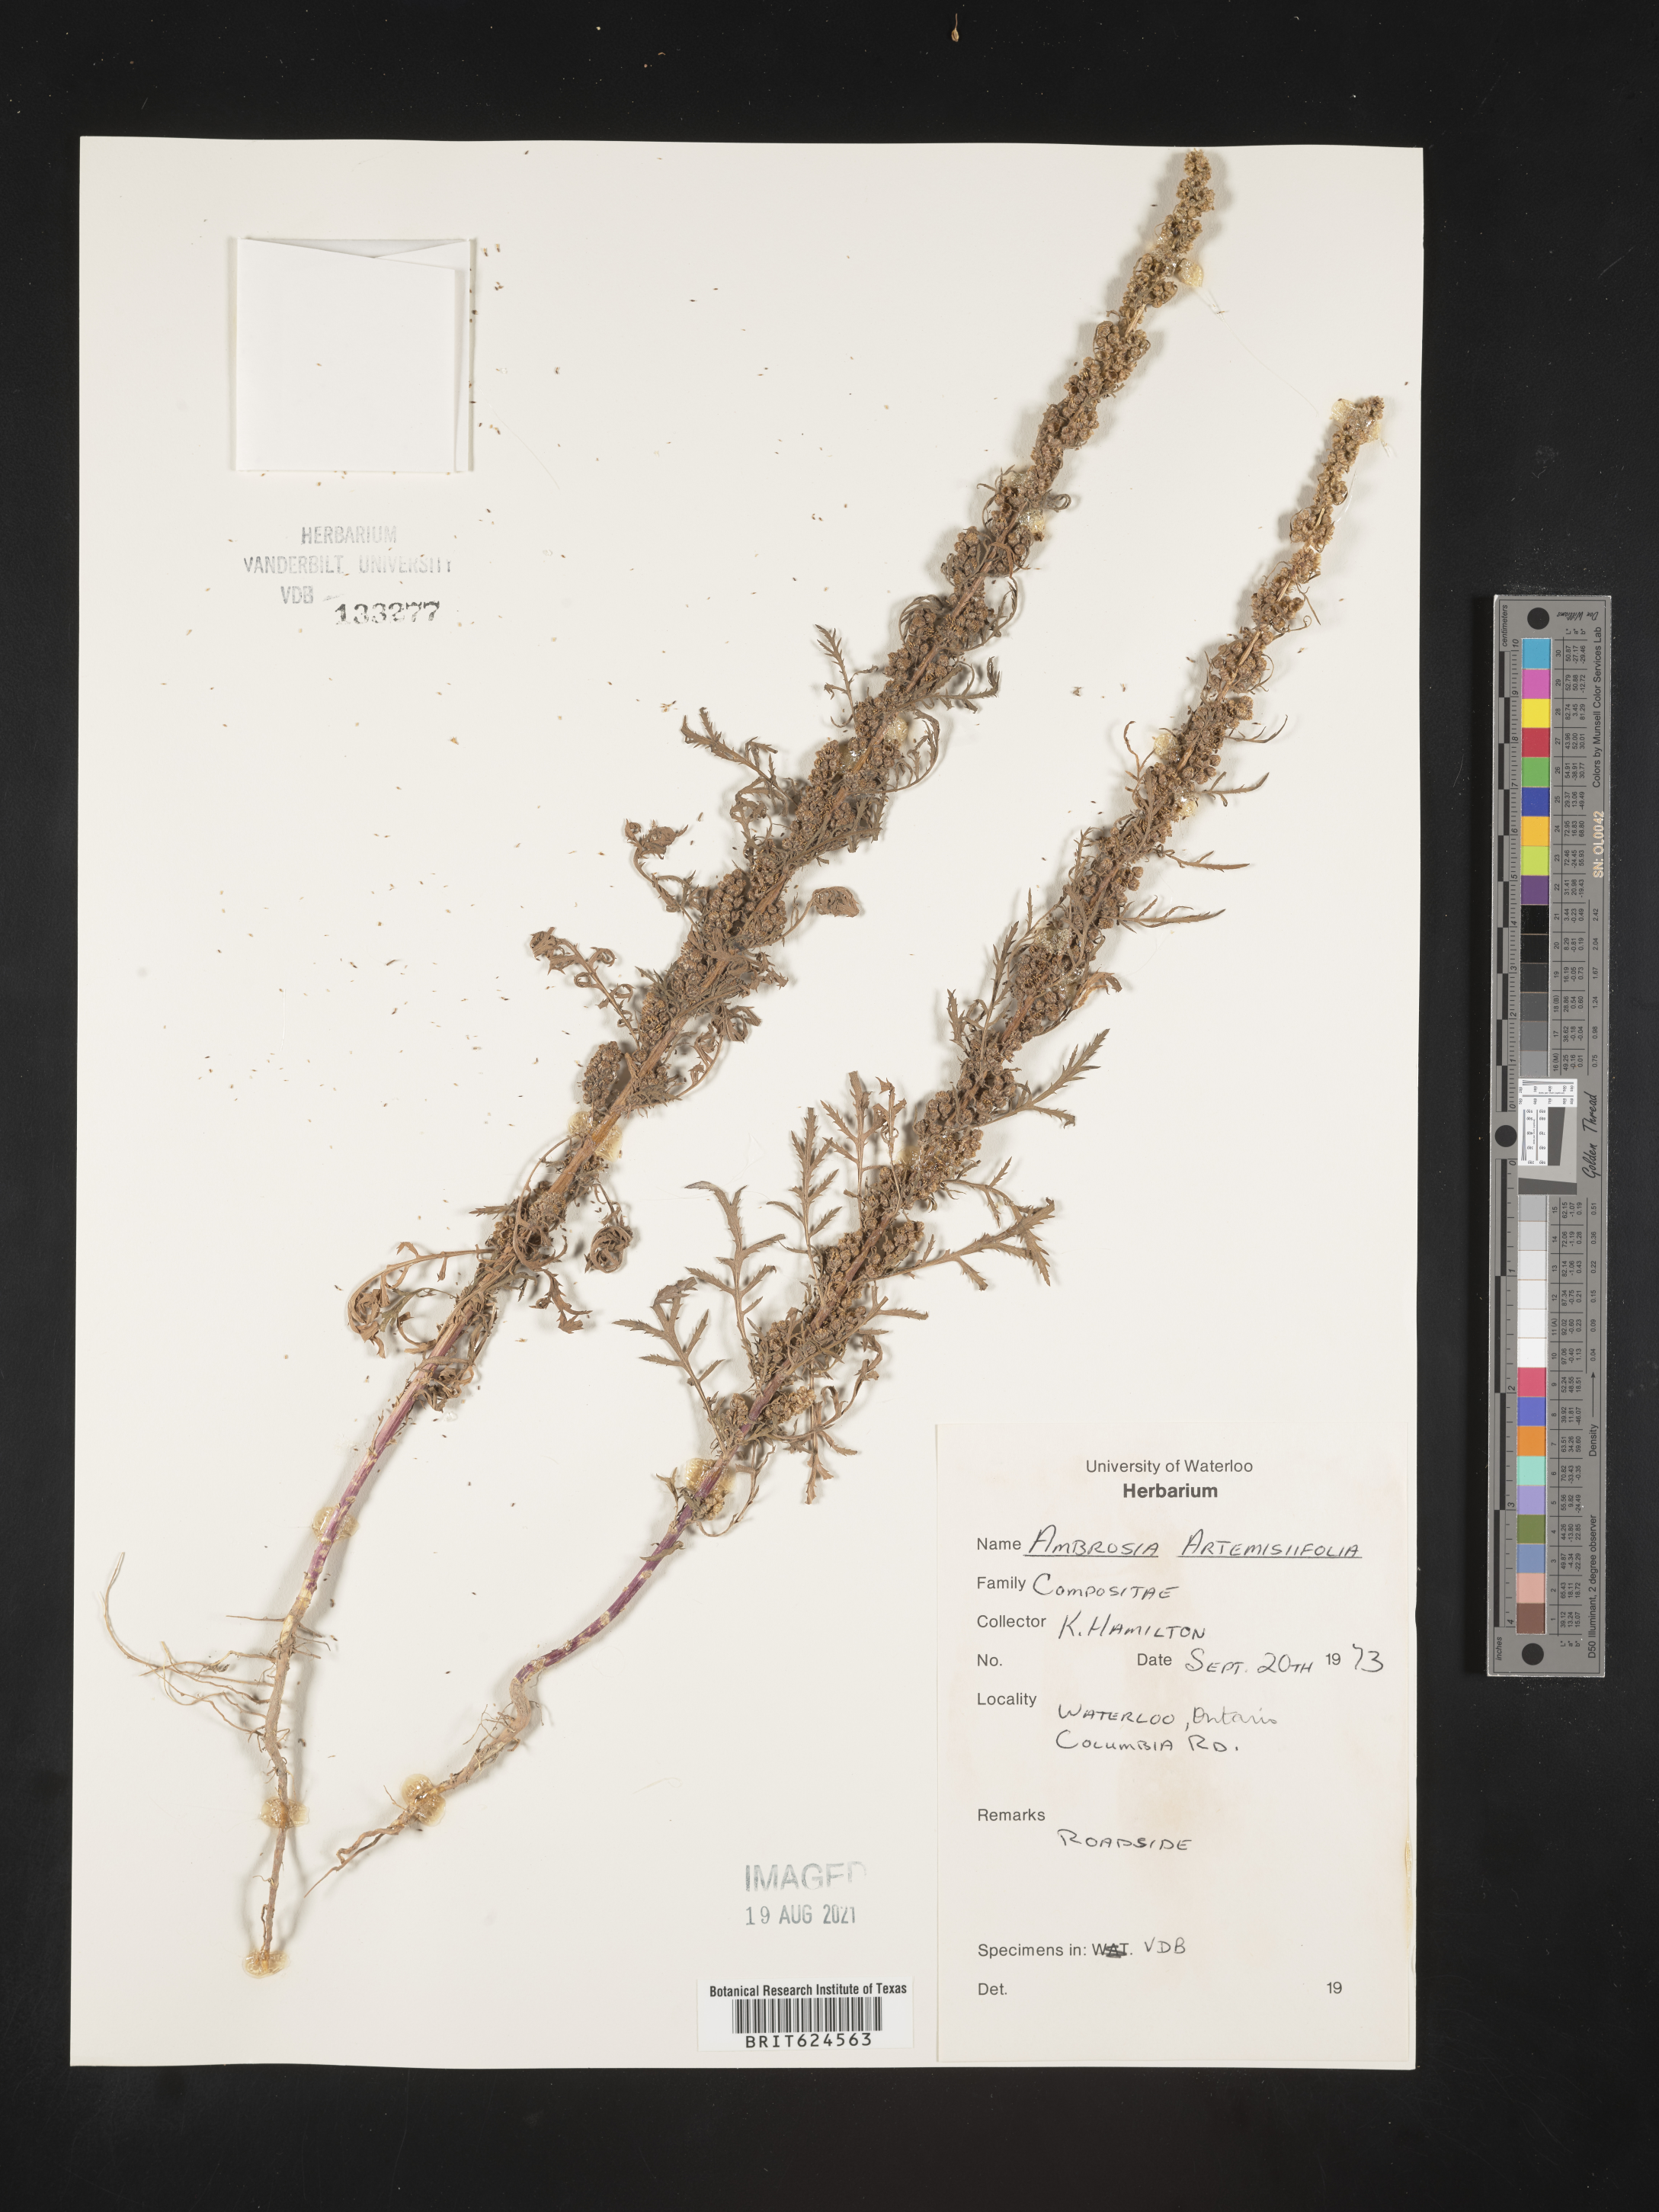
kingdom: Plantae
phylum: Tracheophyta
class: Magnoliopsida
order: Asterales
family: Asteraceae
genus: Ambrosia
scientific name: Ambrosia artemisiifolia
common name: Annual ragweed
